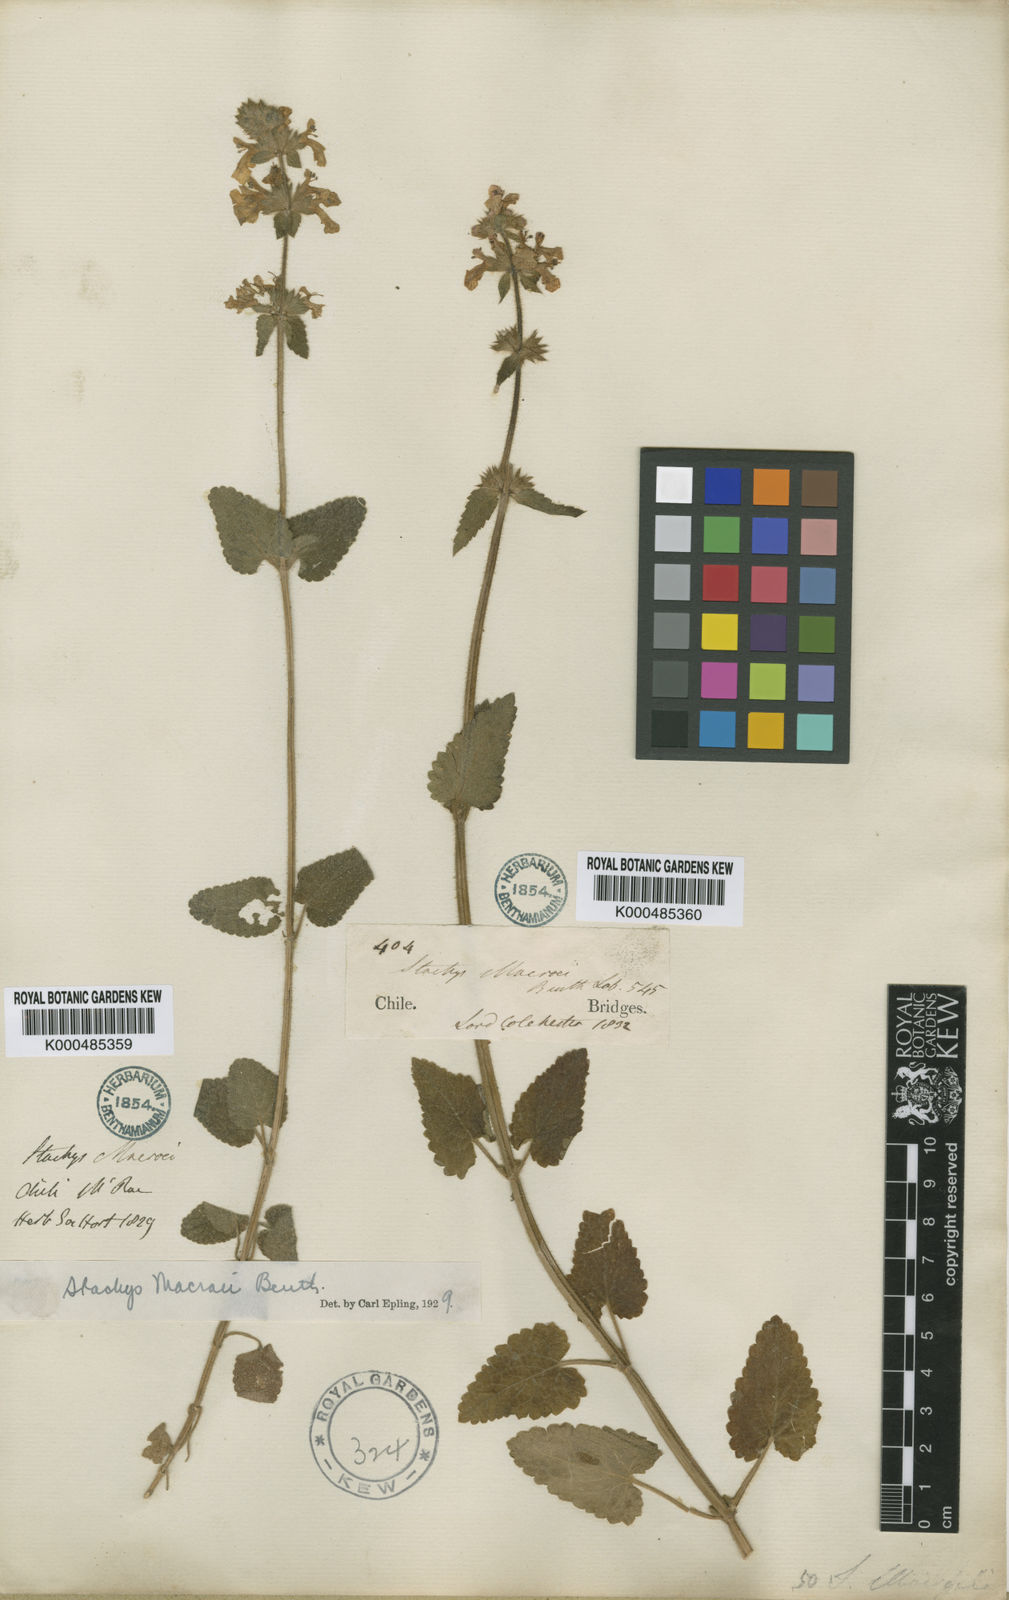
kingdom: Plantae
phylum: Tracheophyta
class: Magnoliopsida
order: Lamiales
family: Lamiaceae
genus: Stachys
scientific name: Stachys macraei
